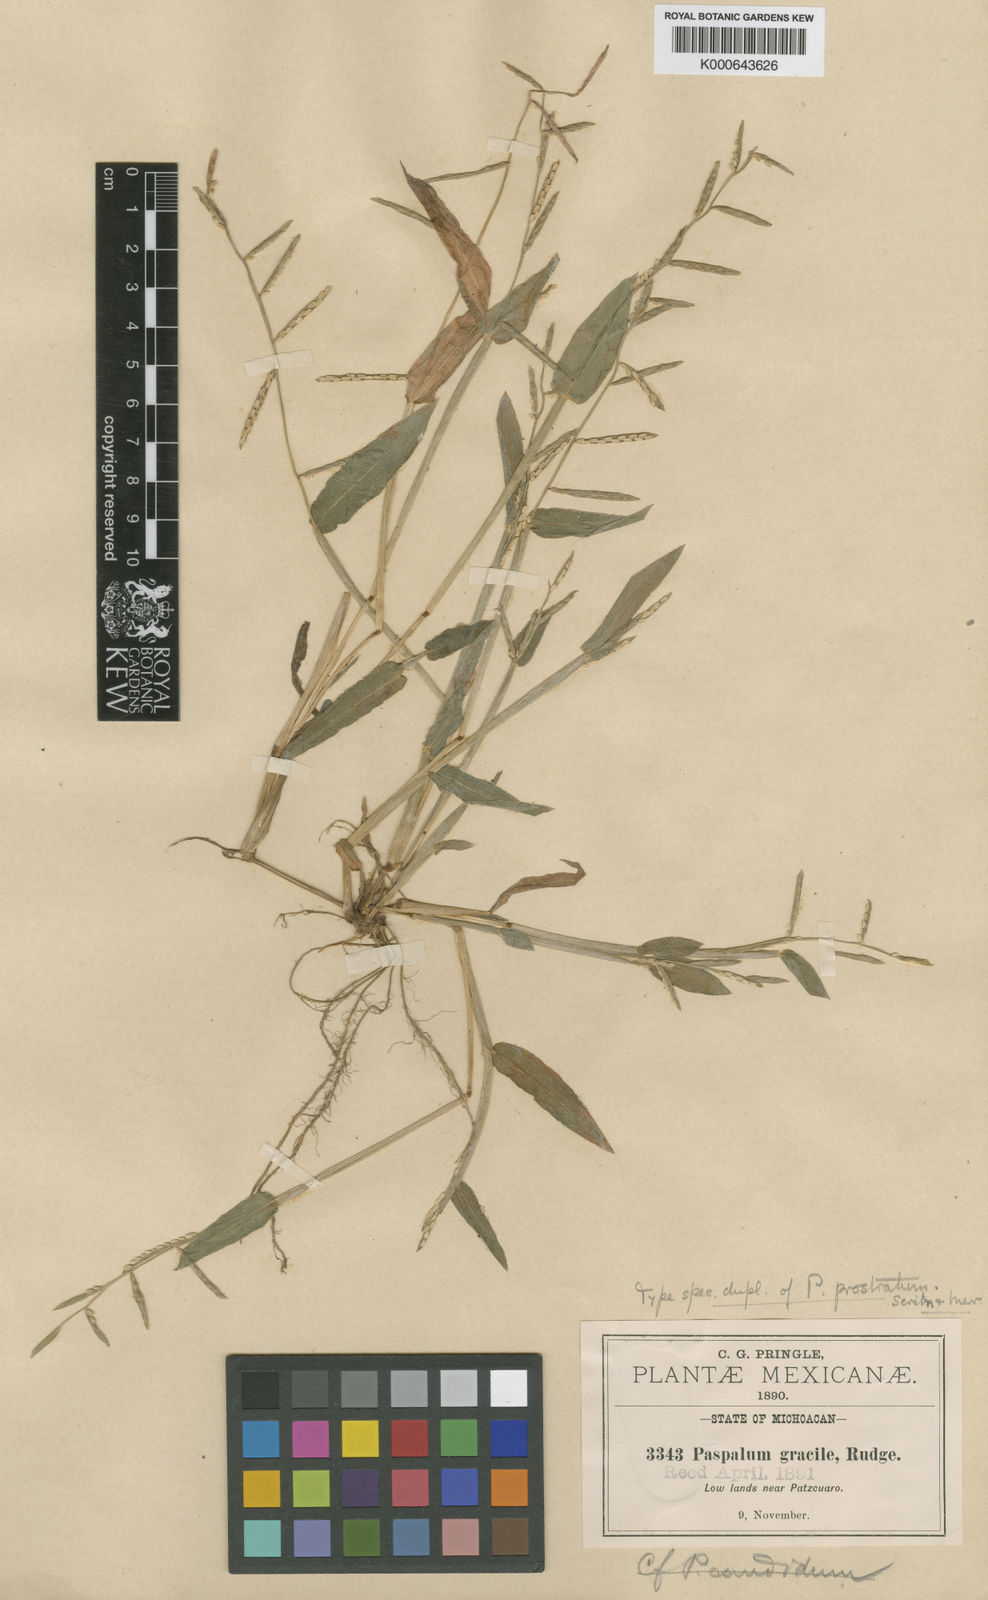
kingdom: Plantae
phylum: Tracheophyta
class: Liliopsida
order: Poales
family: Poaceae
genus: Paspalum
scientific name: Paspalum prostratum
